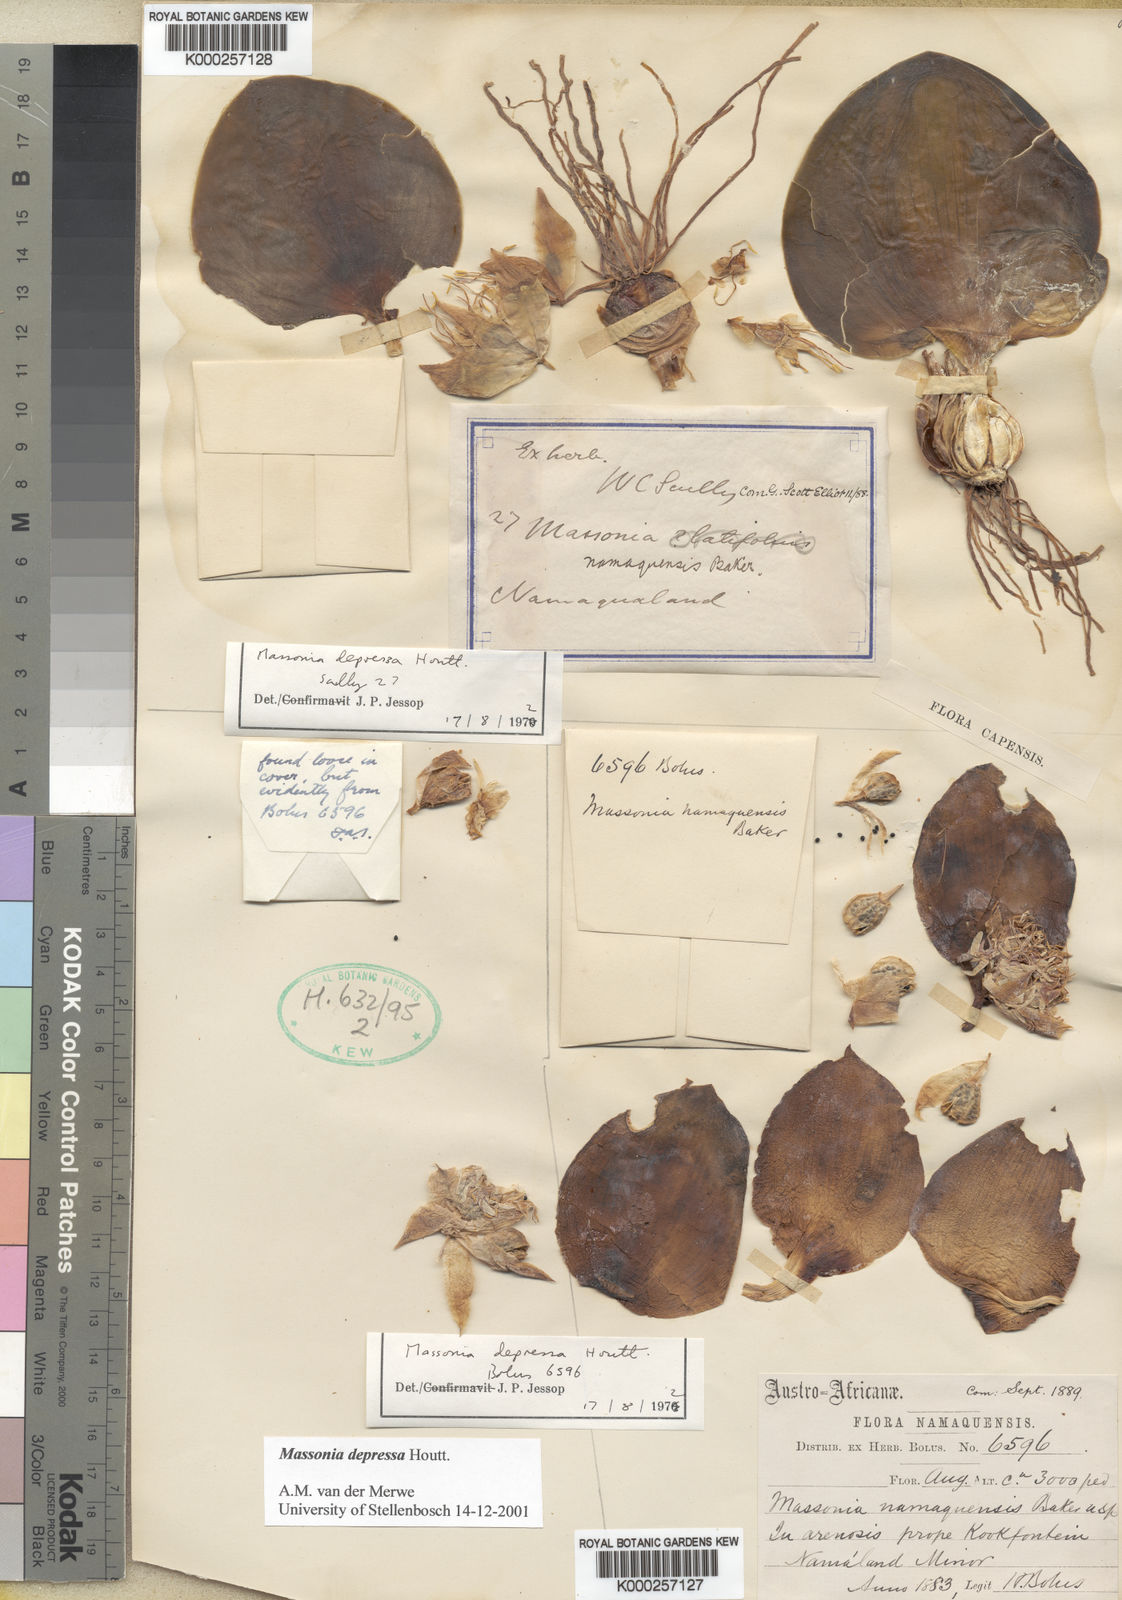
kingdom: Plantae
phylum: Tracheophyta
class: Liliopsida
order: Asparagales
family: Asparagaceae
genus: Massonia
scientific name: Massonia depressa
